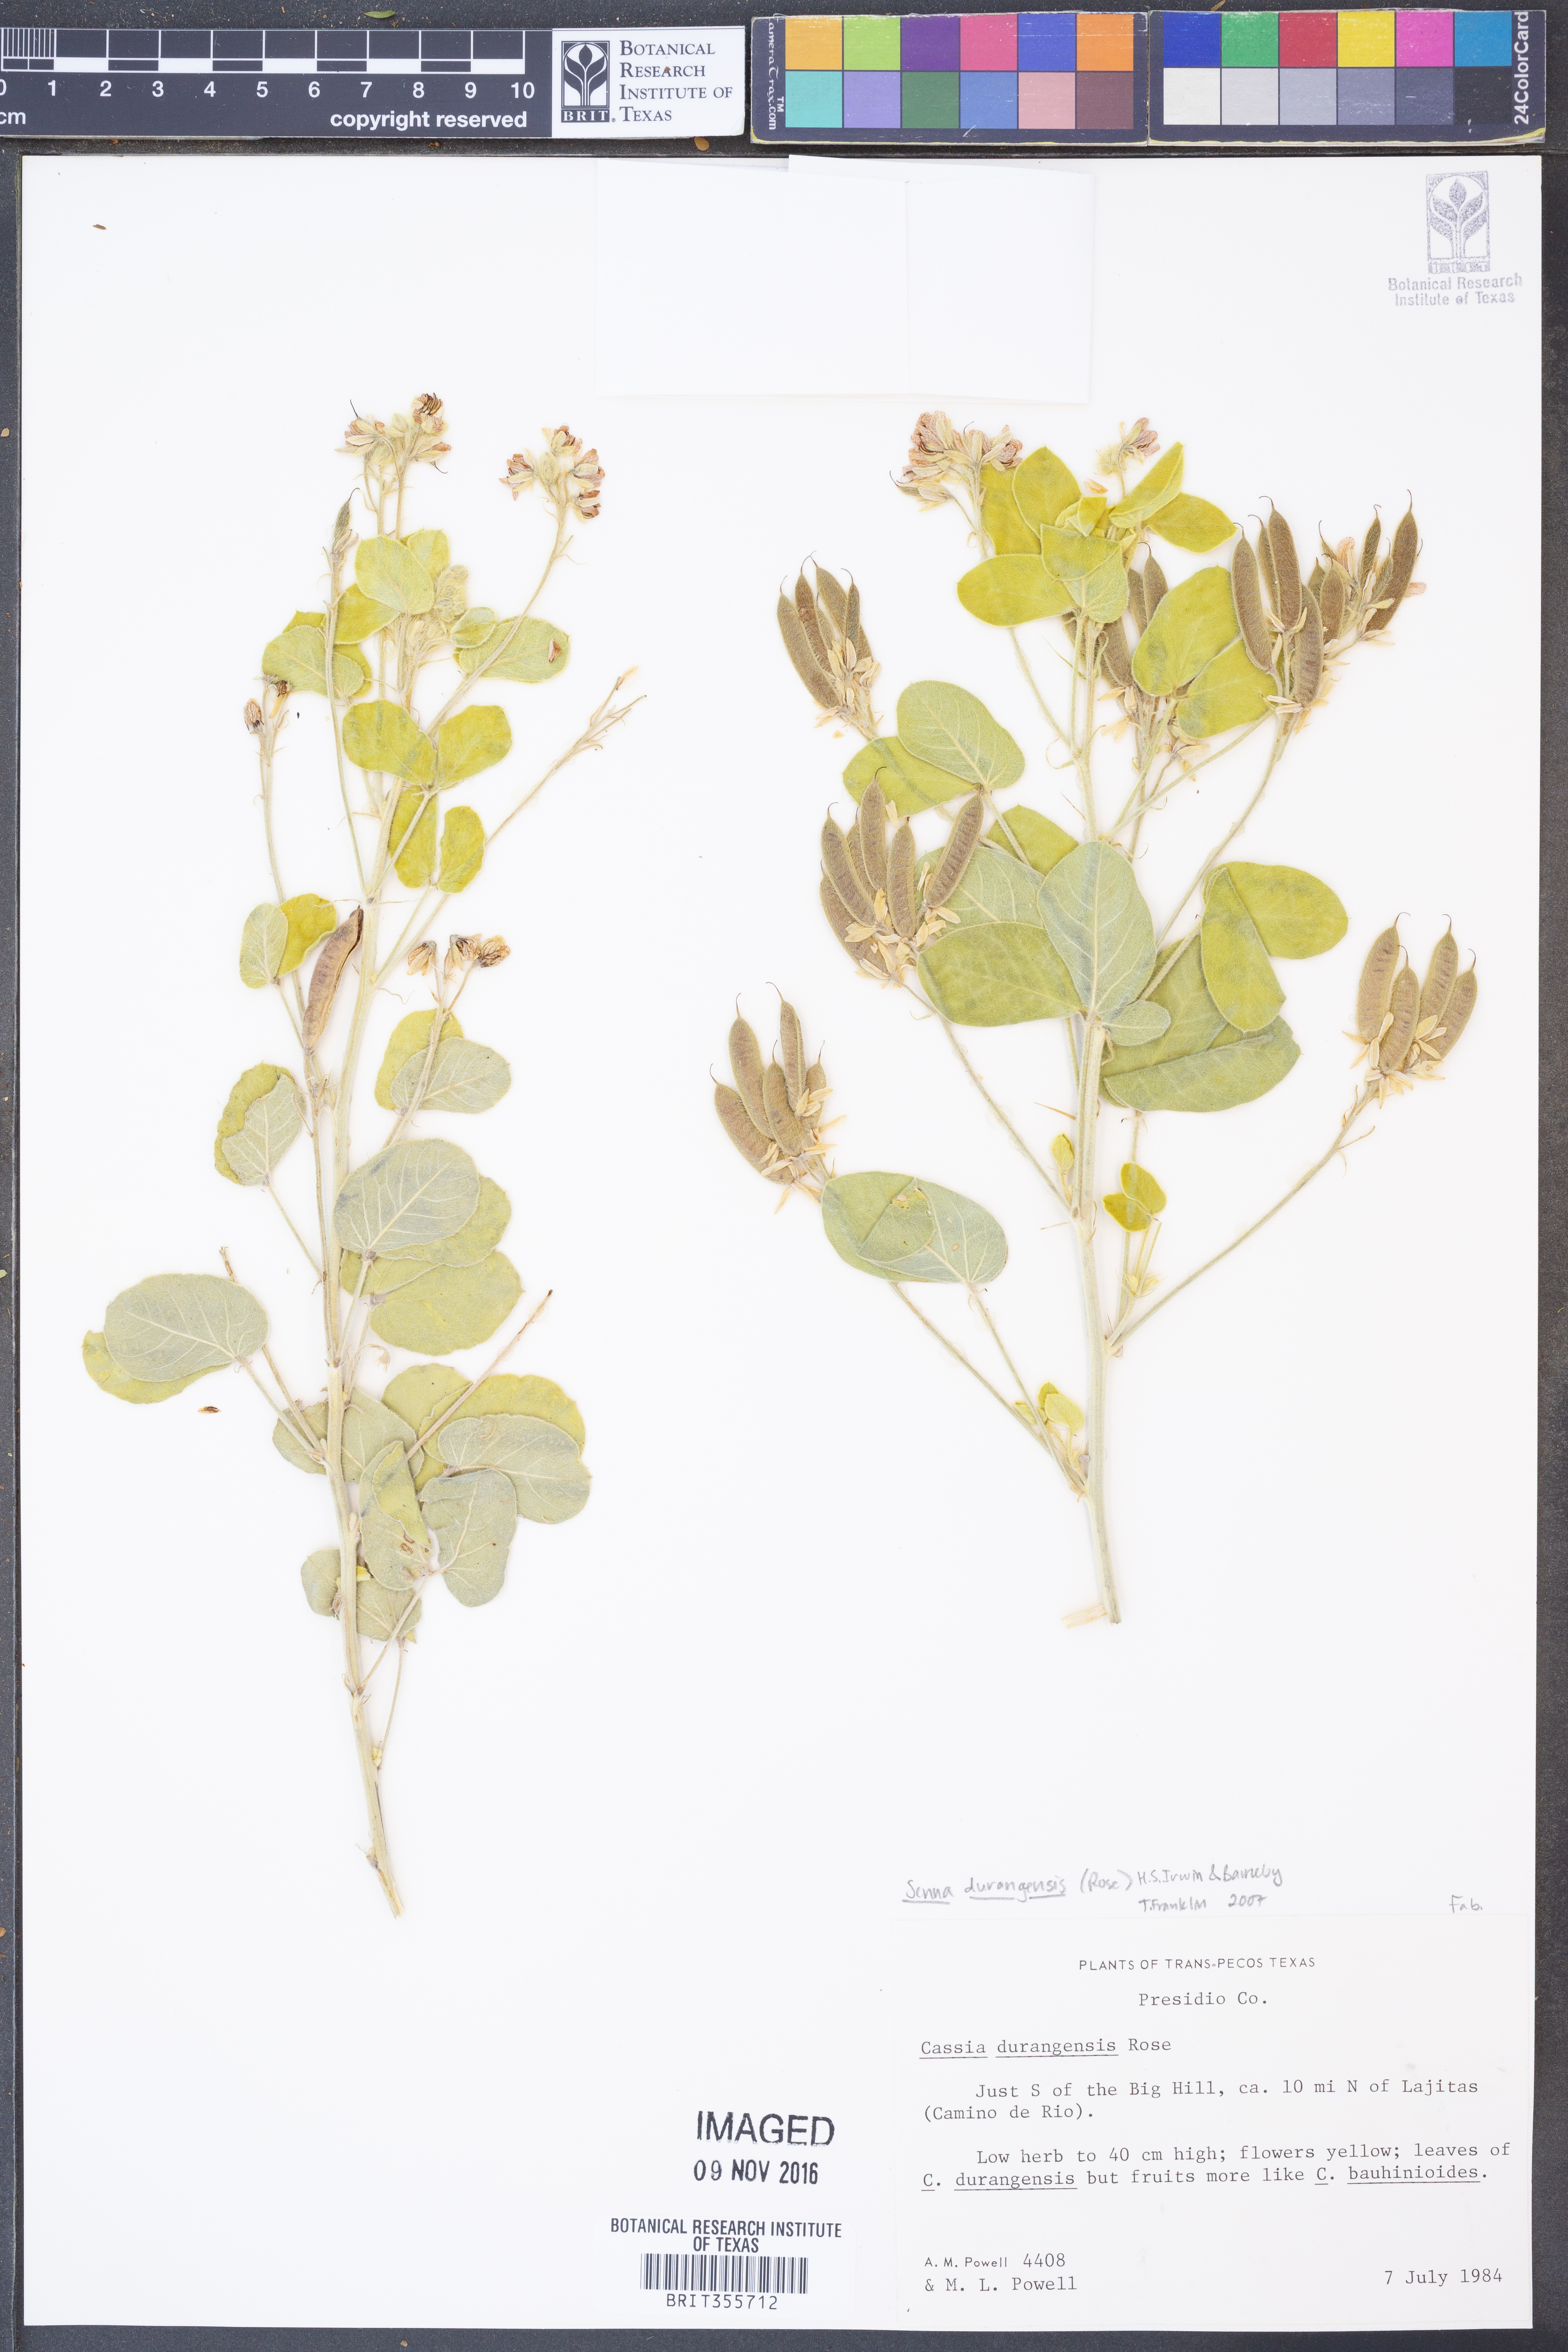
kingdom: Plantae
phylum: Tracheophyta
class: Magnoliopsida
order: Fabales
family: Fabaceae
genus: Senna
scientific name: Senna durangensis
